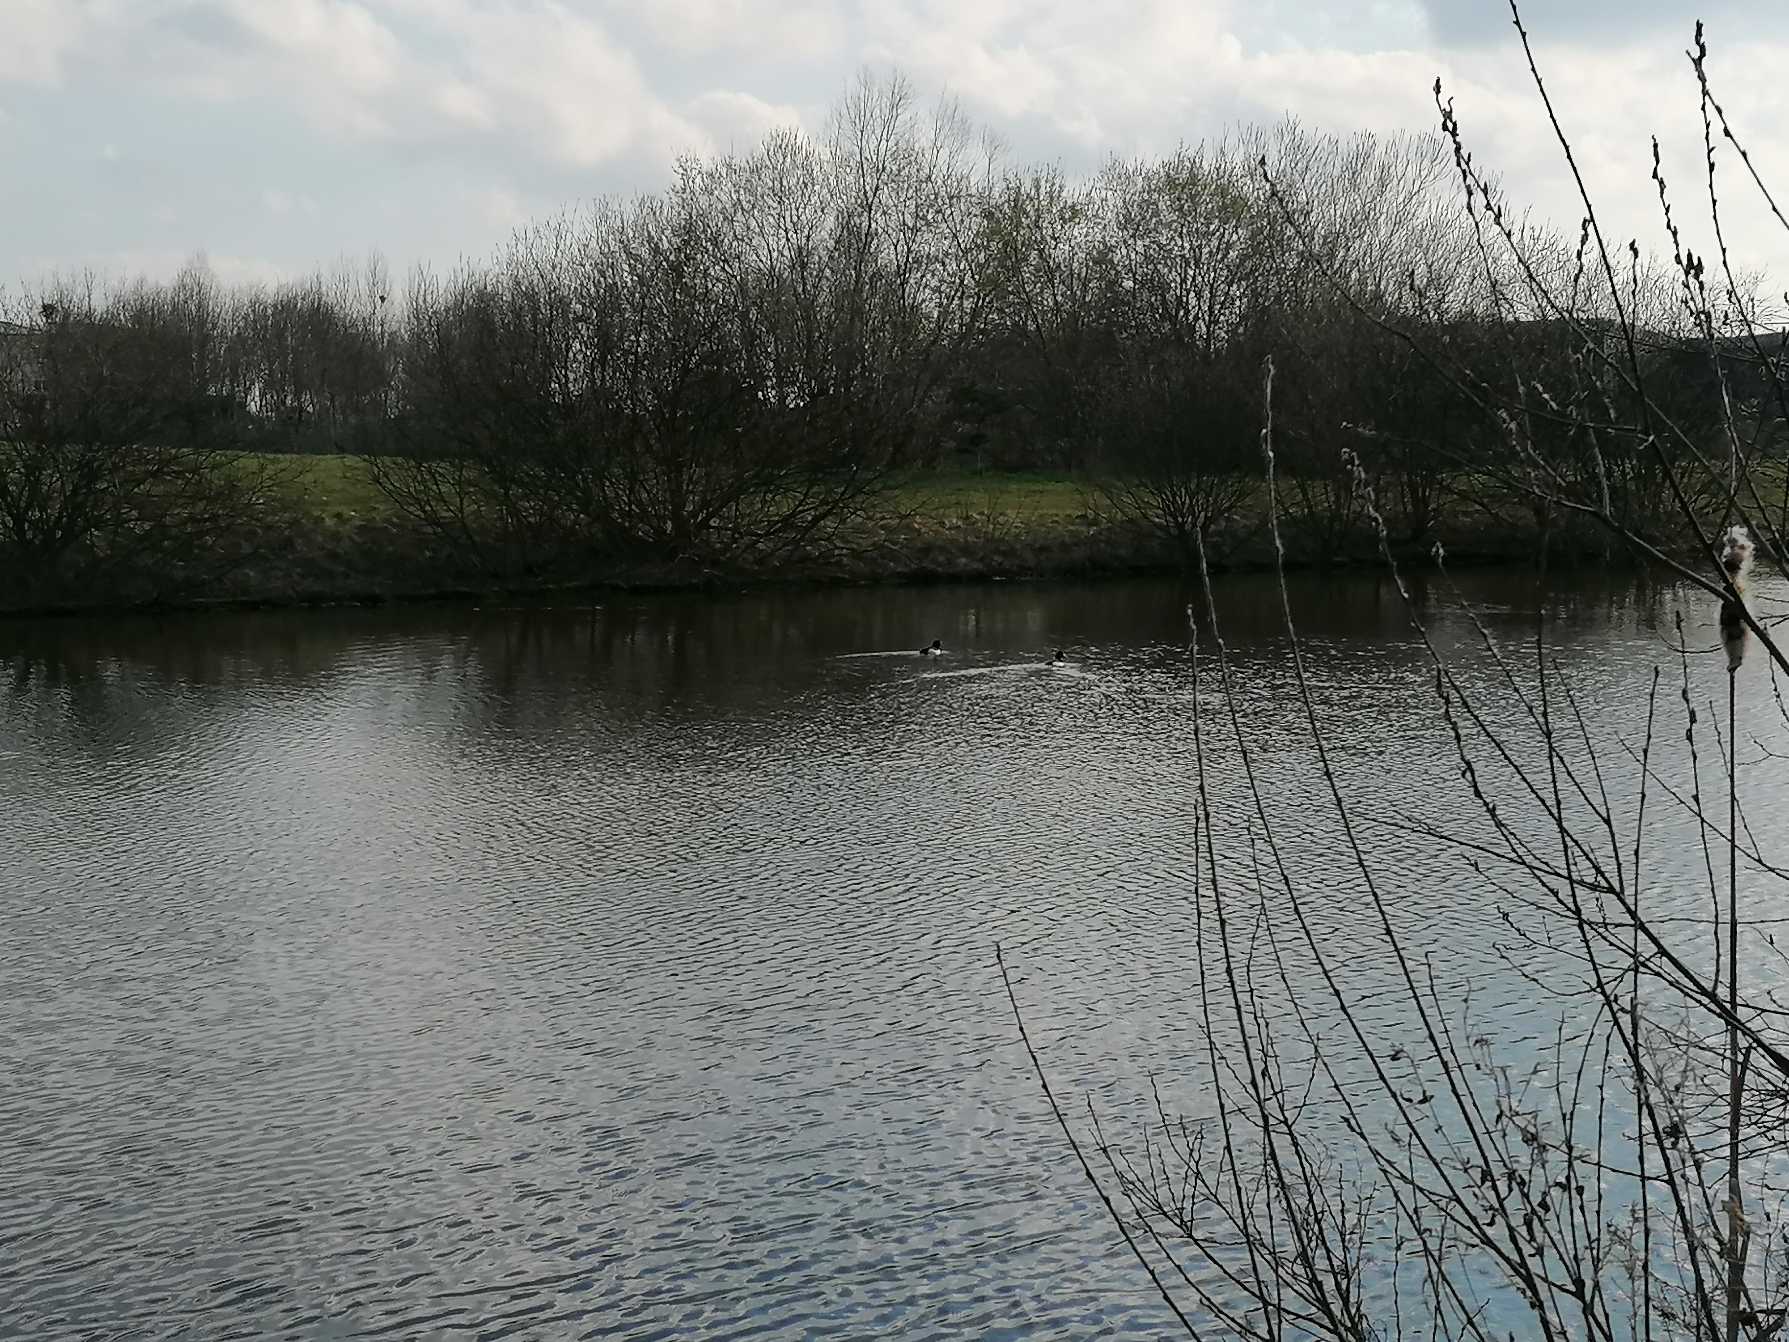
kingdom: Animalia
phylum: Chordata
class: Aves
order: Anseriformes
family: Anatidae
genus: Aythya
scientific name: Aythya fuligula
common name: Troldand
